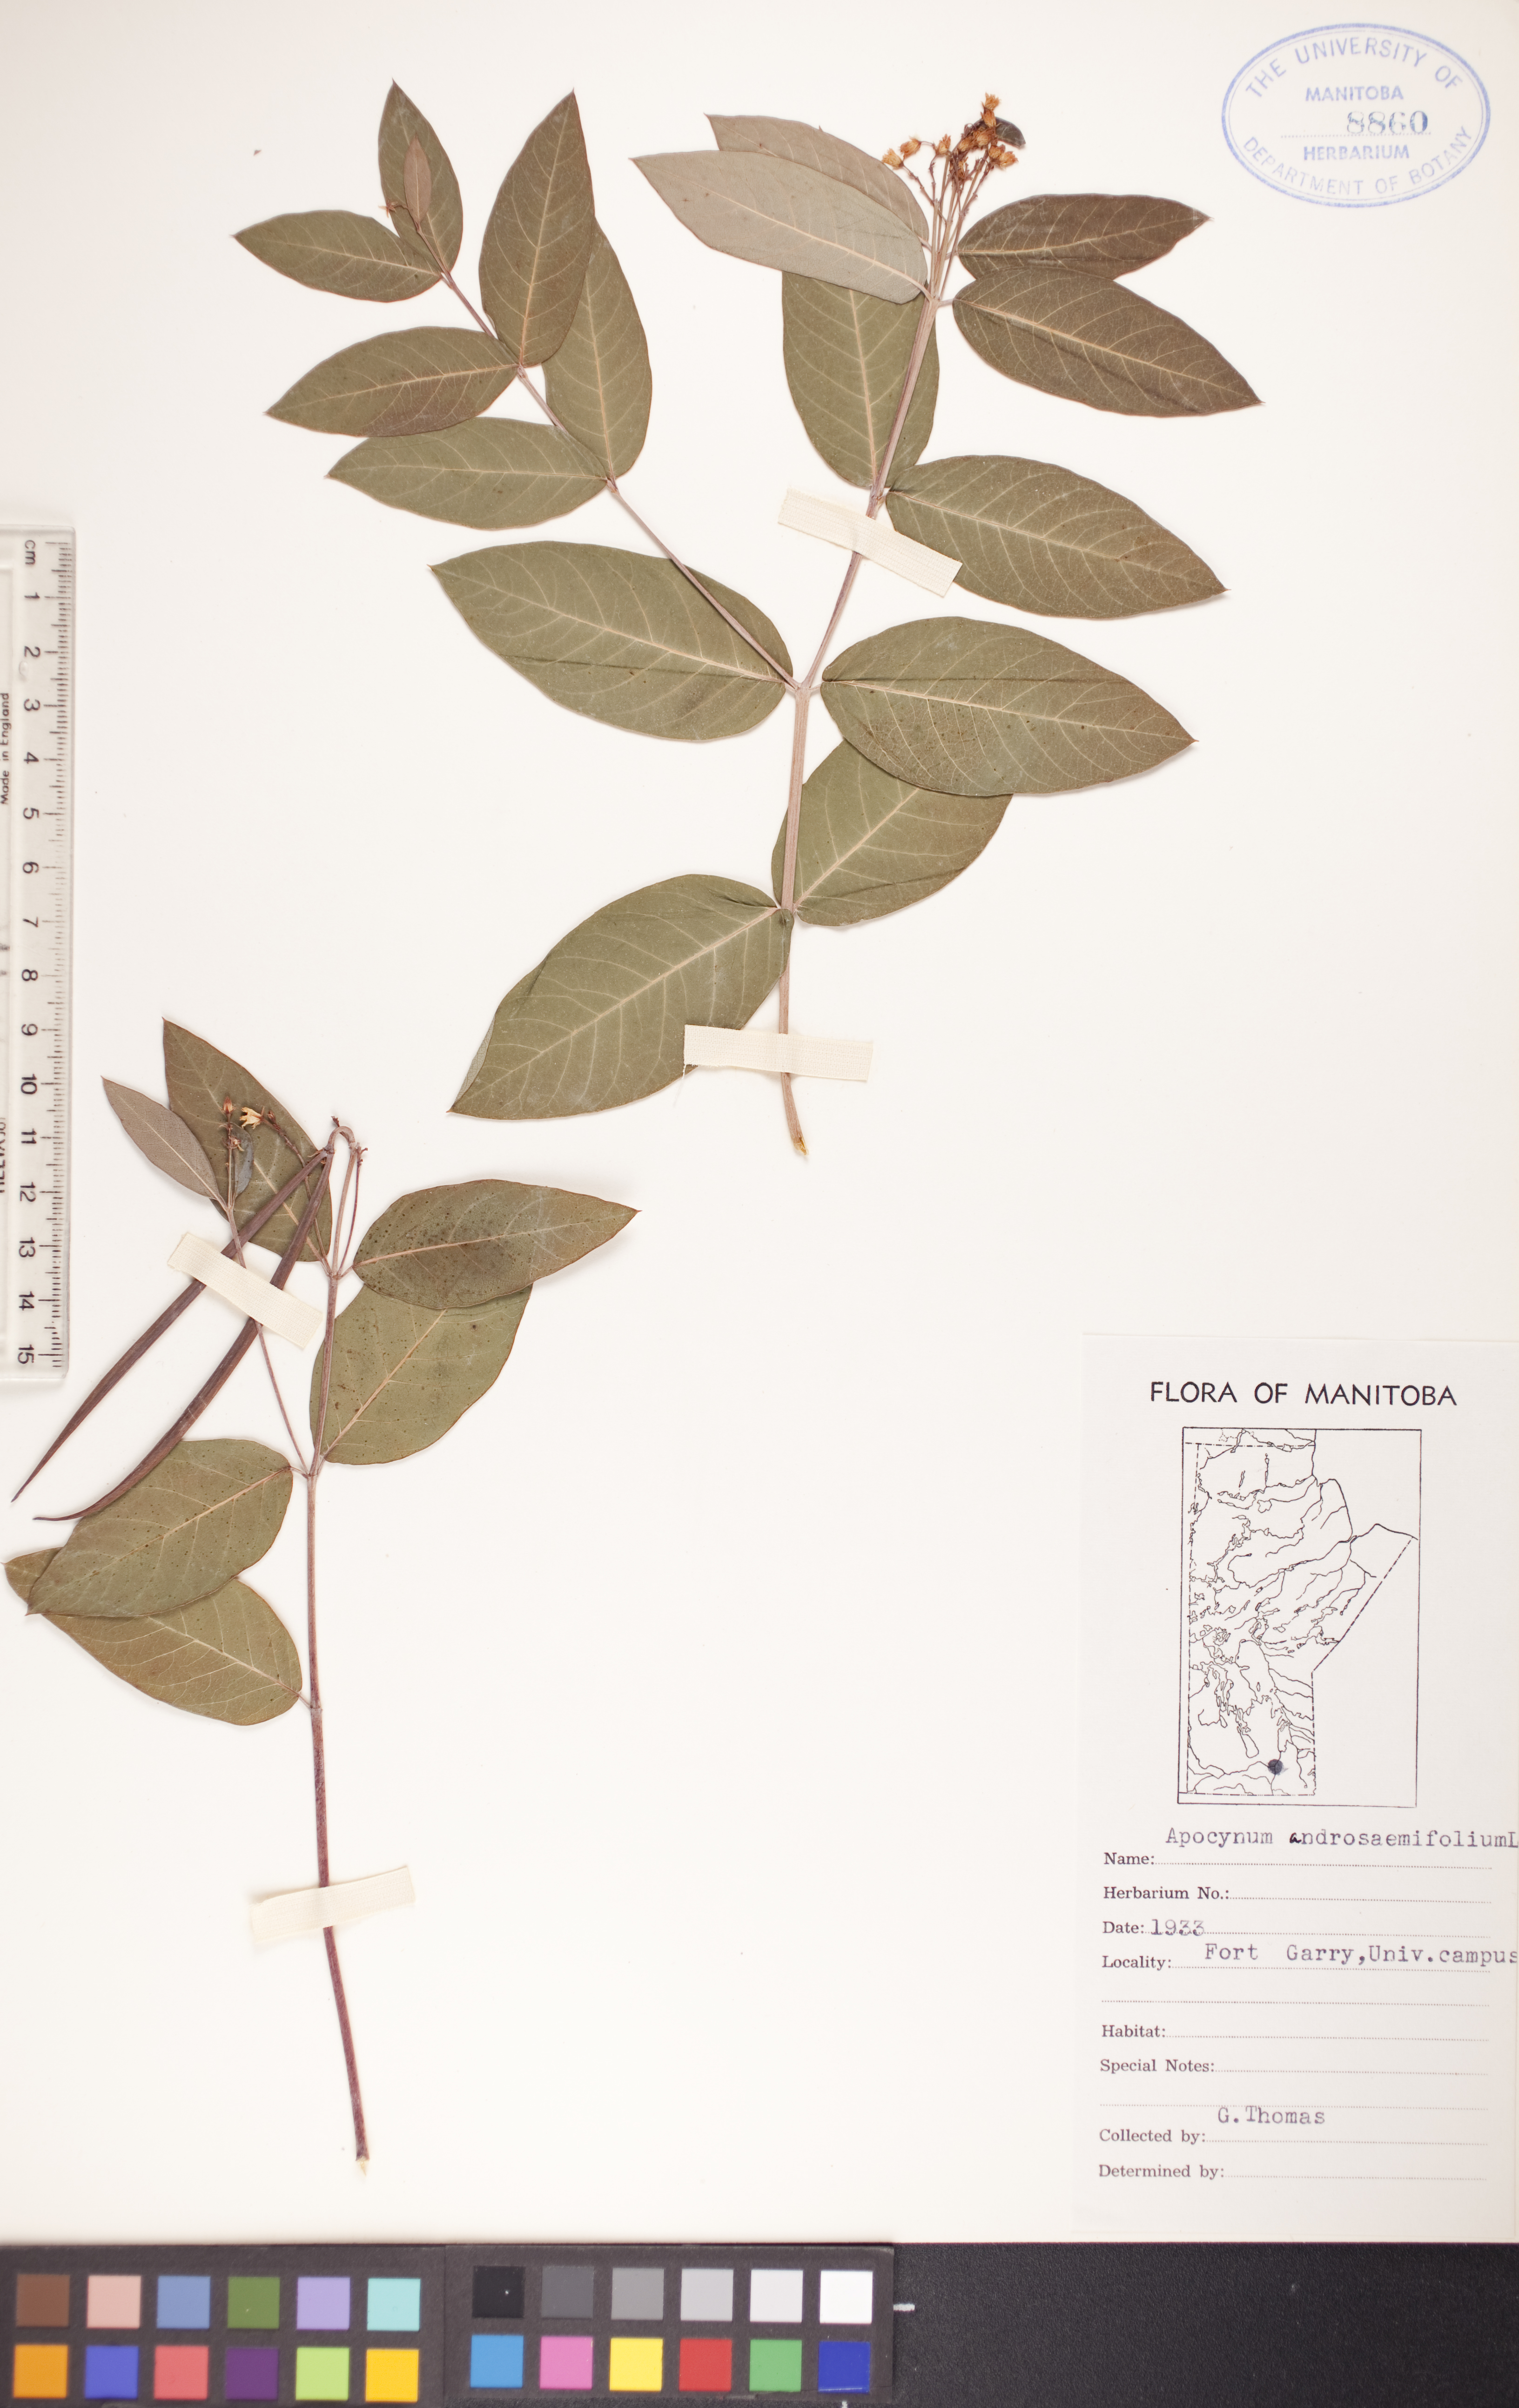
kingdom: Plantae
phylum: Tracheophyta
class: Magnoliopsida
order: Gentianales
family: Apocynaceae
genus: Apocynum
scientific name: Apocynum androsaemifolium
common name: Spreading dogbane
